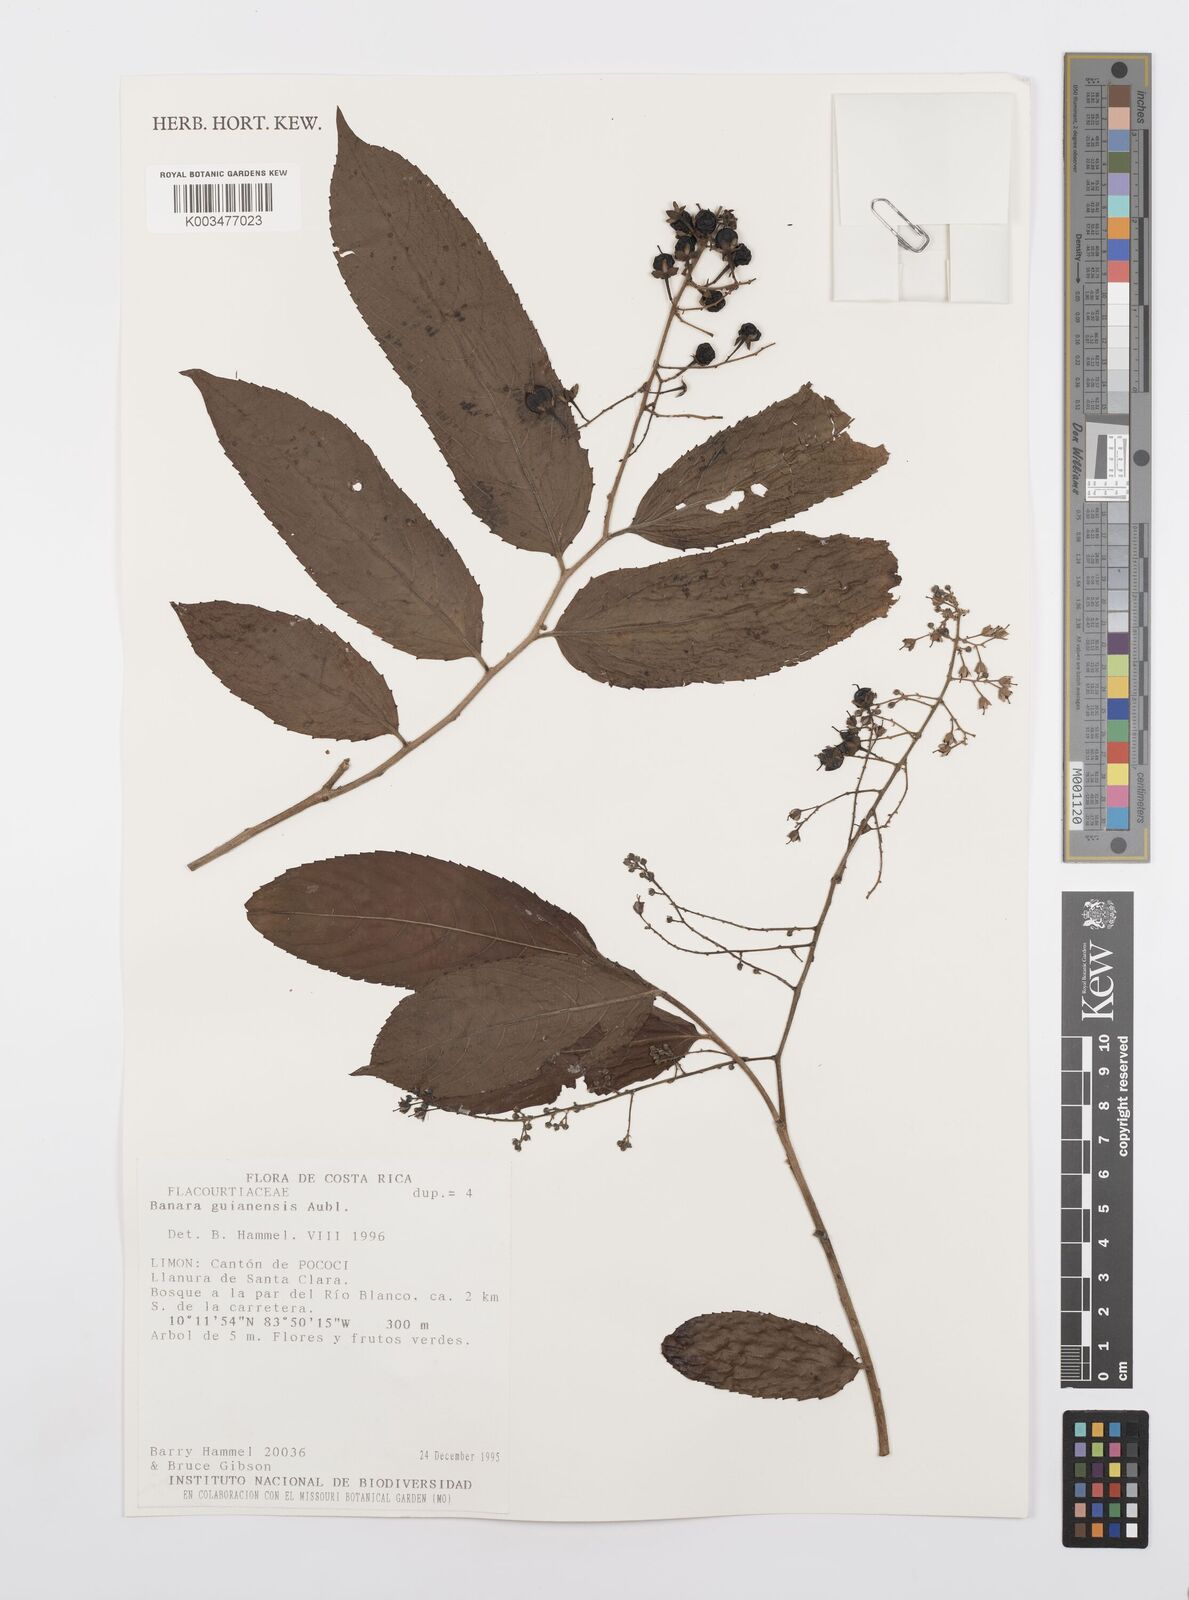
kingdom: Plantae
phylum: Tracheophyta
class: Magnoliopsida
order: Malpighiales
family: Salicaceae
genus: Banara
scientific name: Banara guianensis
